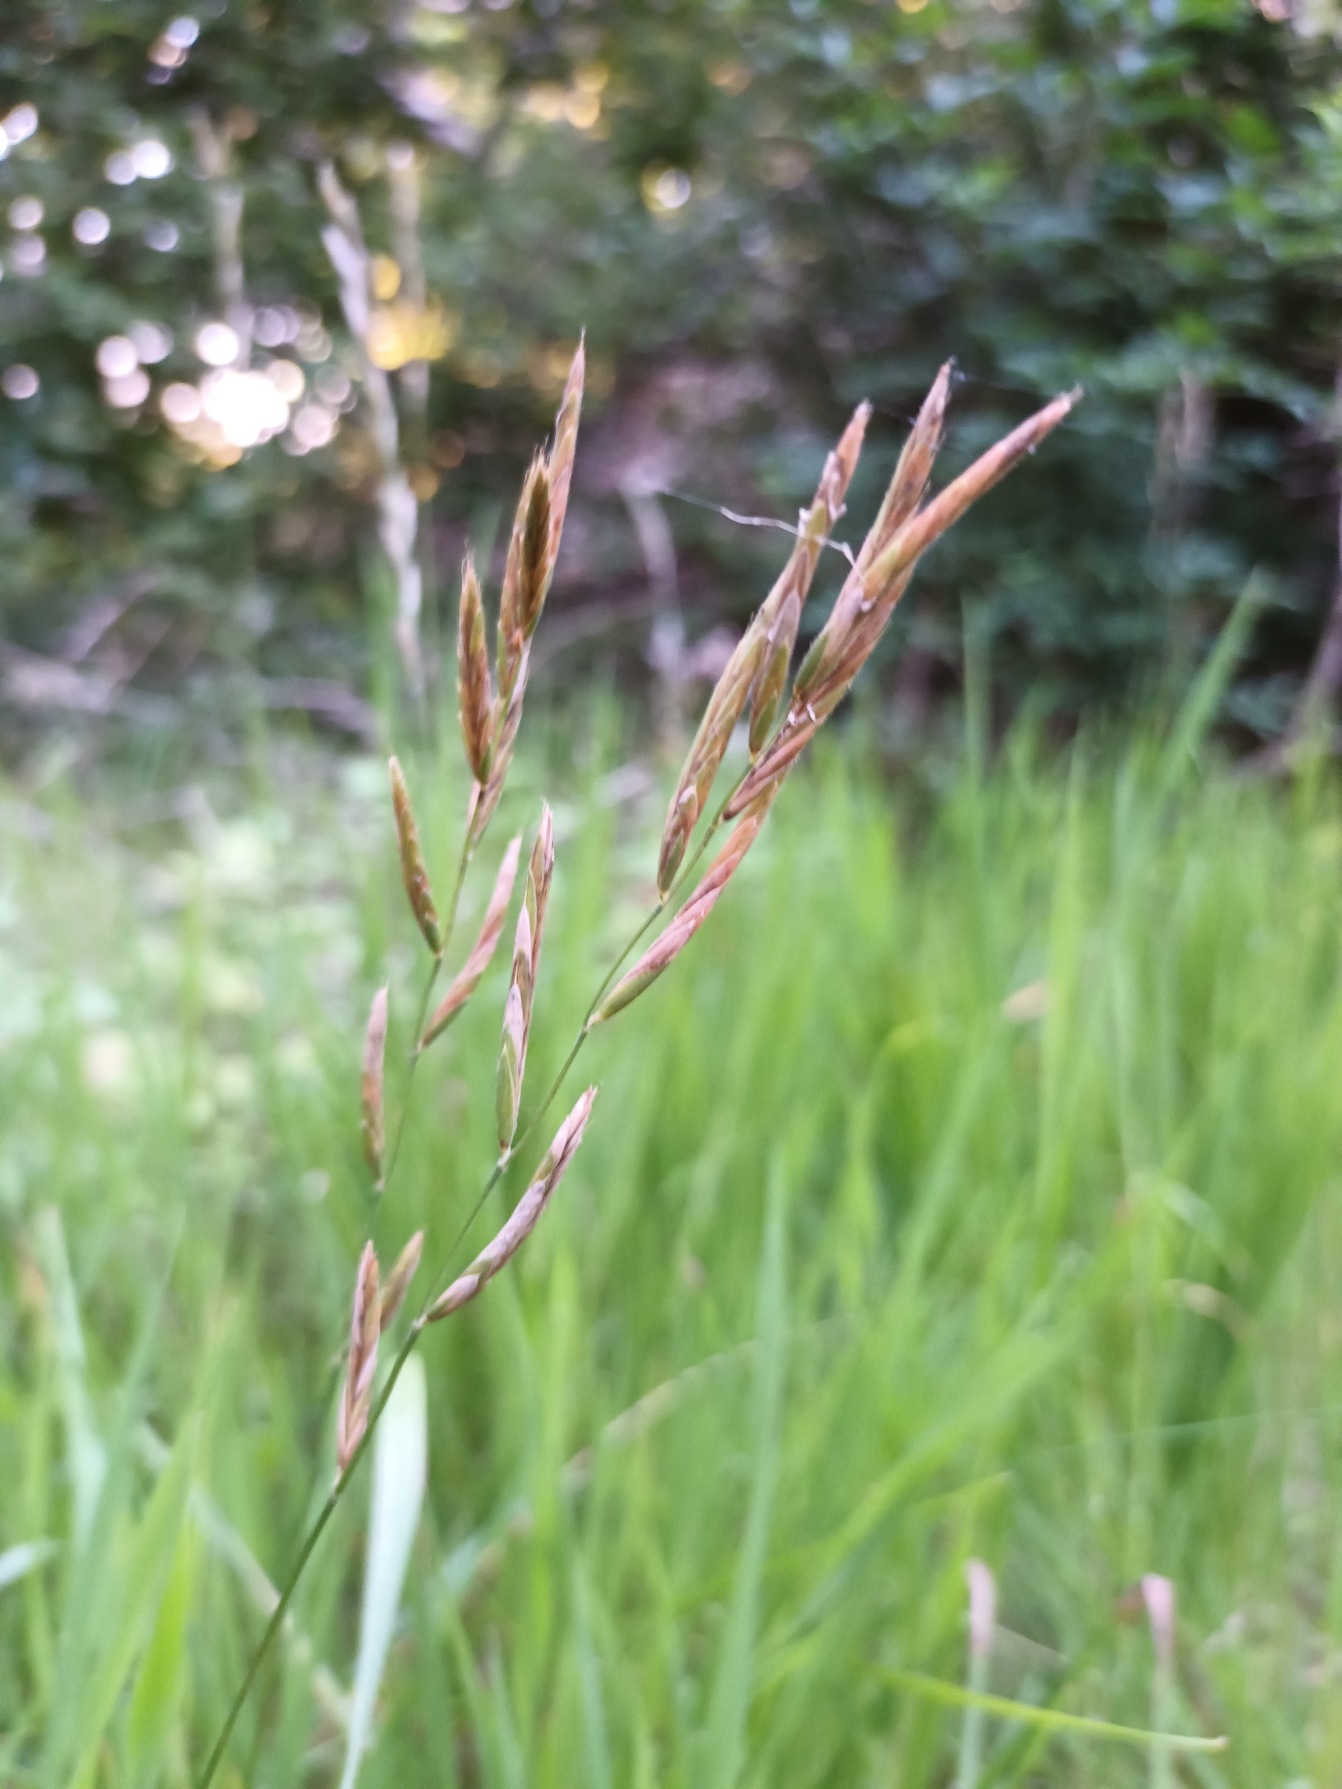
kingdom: Plantae
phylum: Tracheophyta
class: Liliopsida
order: Poales
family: Poaceae
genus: Brachypodium
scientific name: Brachypodium pinnatum
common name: Bakke-stilkaks
